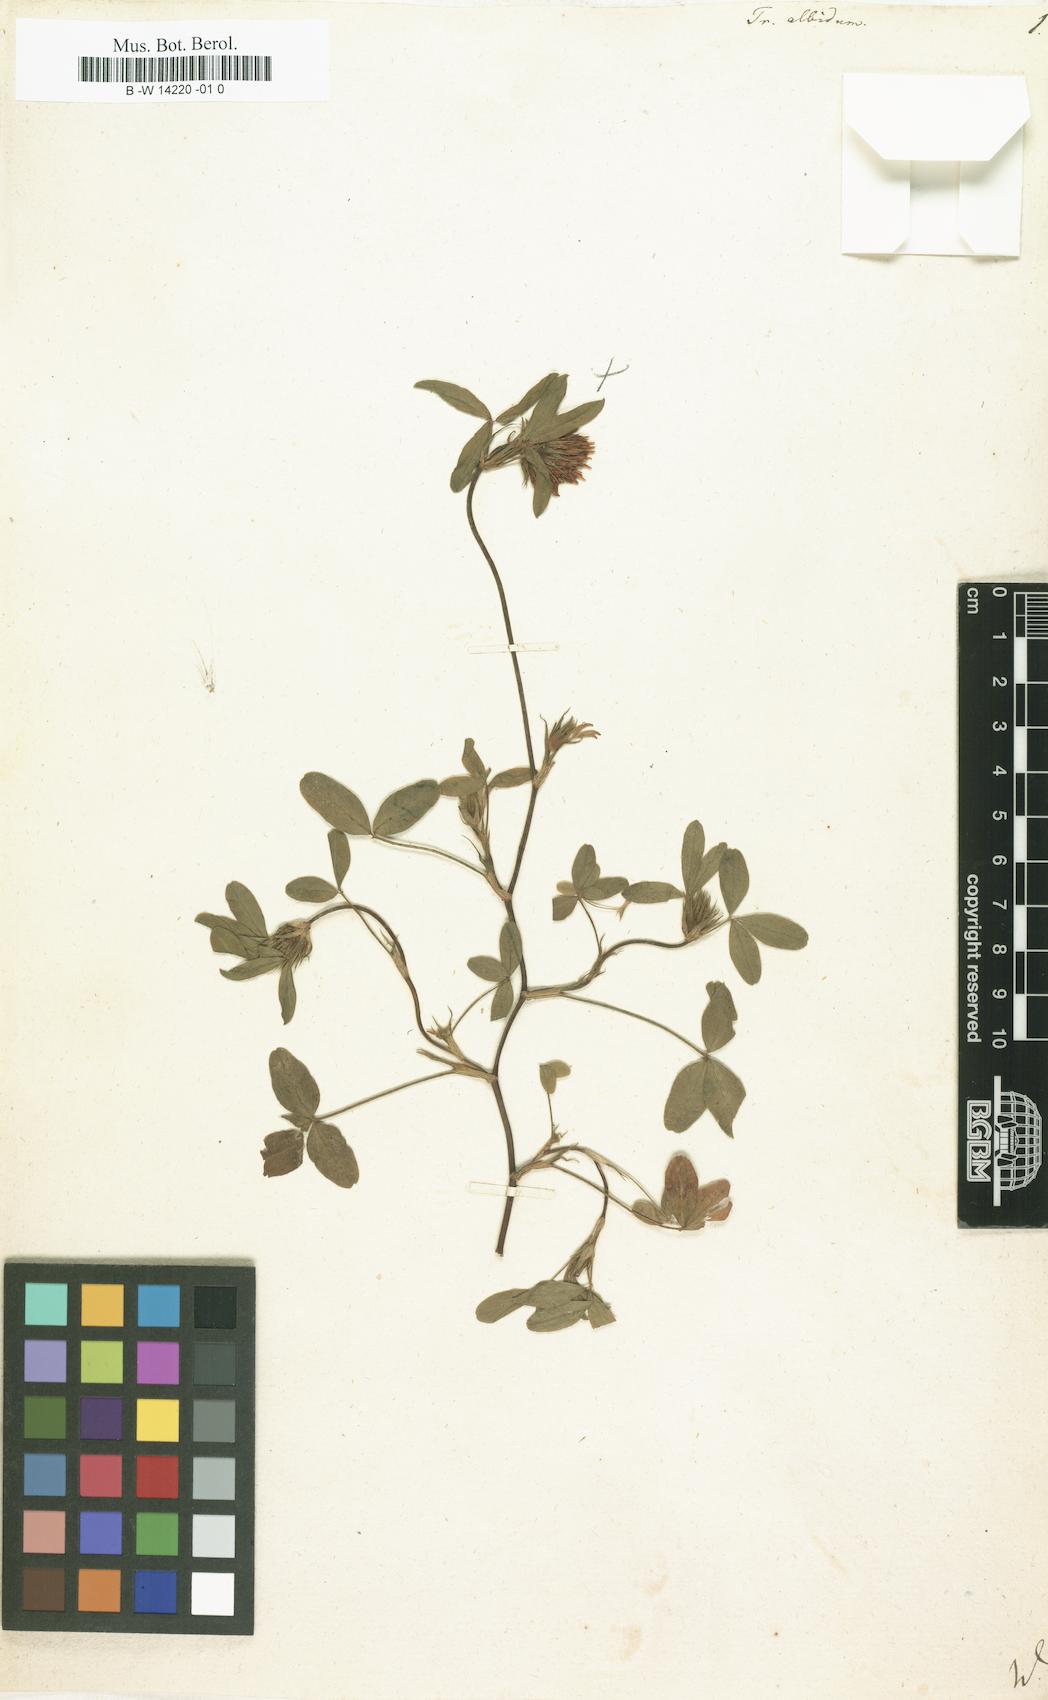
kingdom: Plantae
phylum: Tracheophyta
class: Magnoliopsida
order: Fabales
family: Fabaceae
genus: Trifolium
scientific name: Trifolium squarrosum
